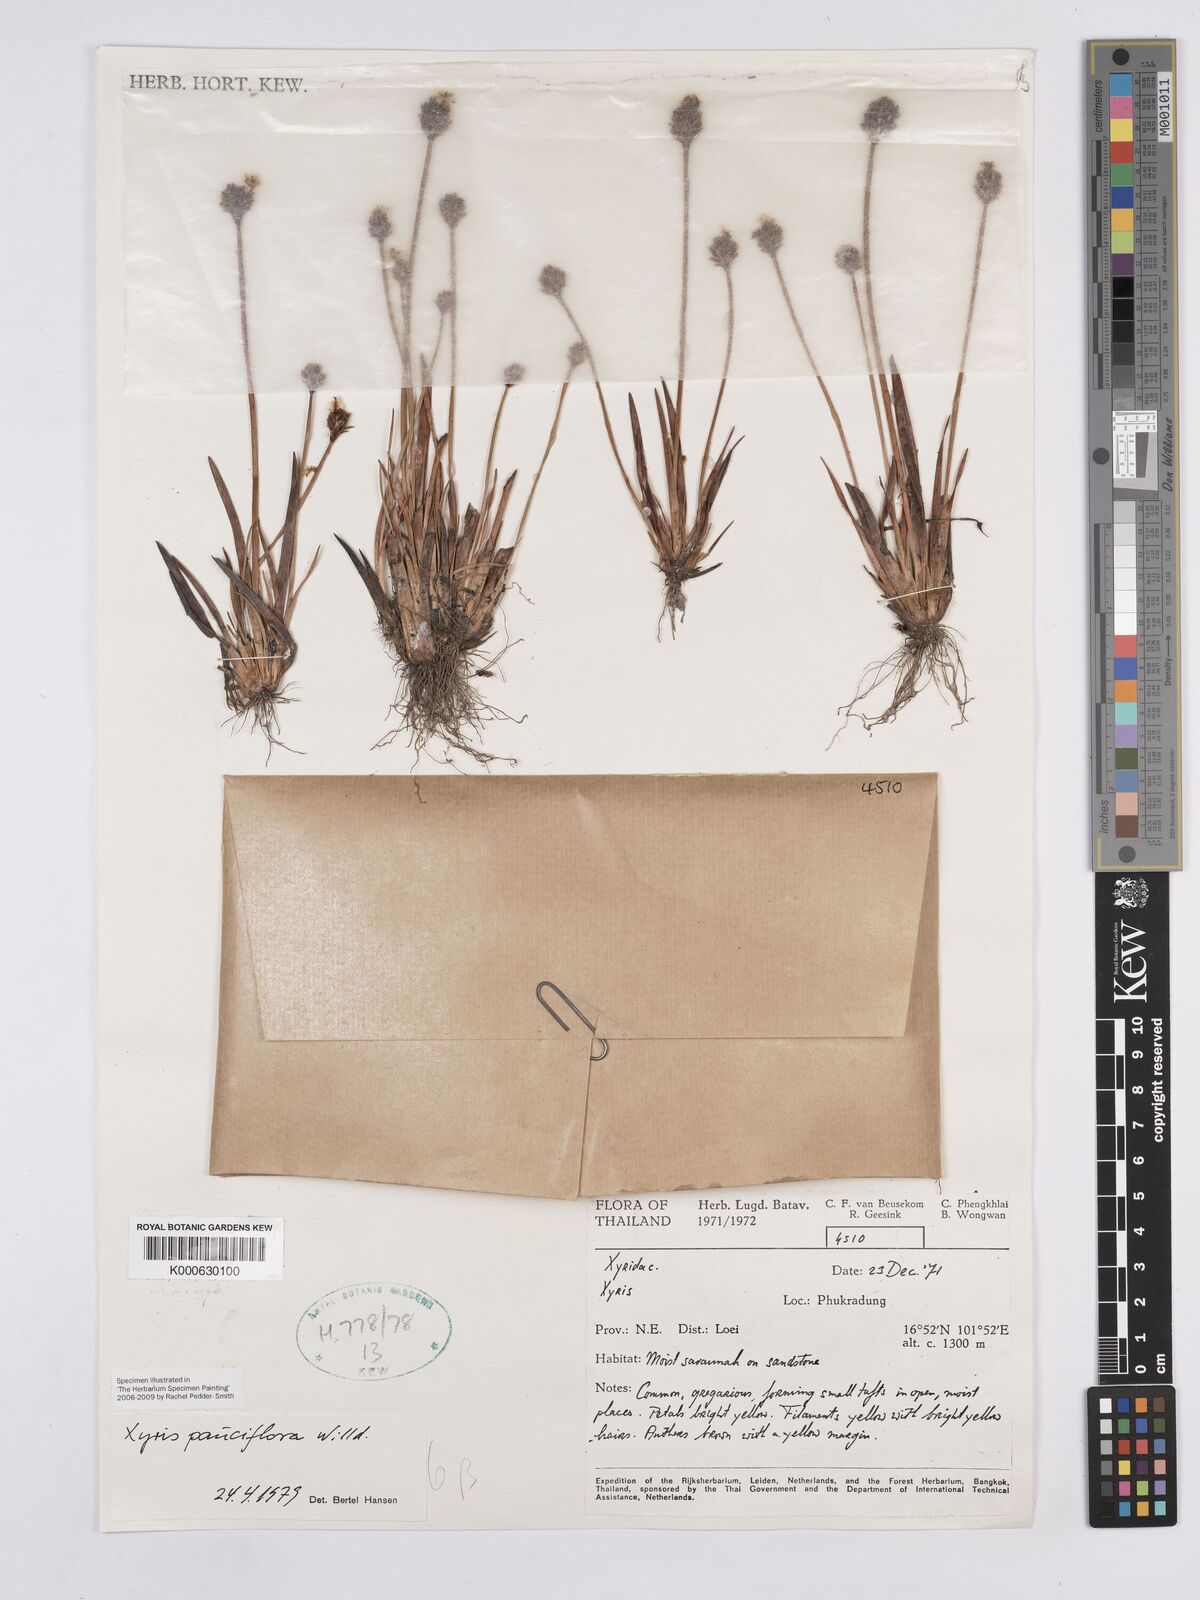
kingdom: Plantae
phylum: Tracheophyta
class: Liliopsida
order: Poales
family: Xyridaceae
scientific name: Xyridaceae
